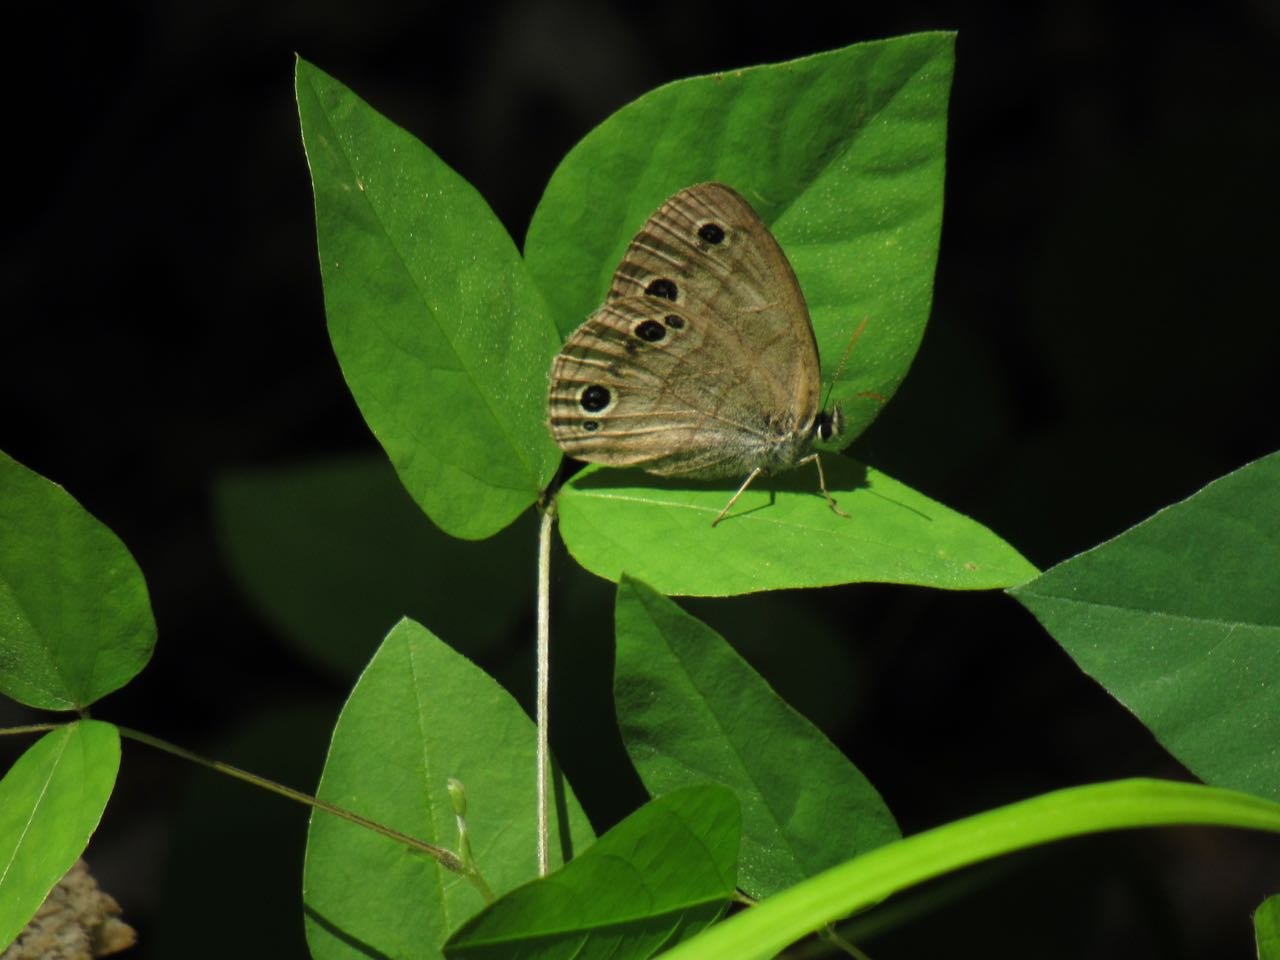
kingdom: Animalia
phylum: Arthropoda
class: Insecta
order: Lepidoptera
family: Nymphalidae
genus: Euptychia
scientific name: Euptychia cymela
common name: Little Wood Satyr
